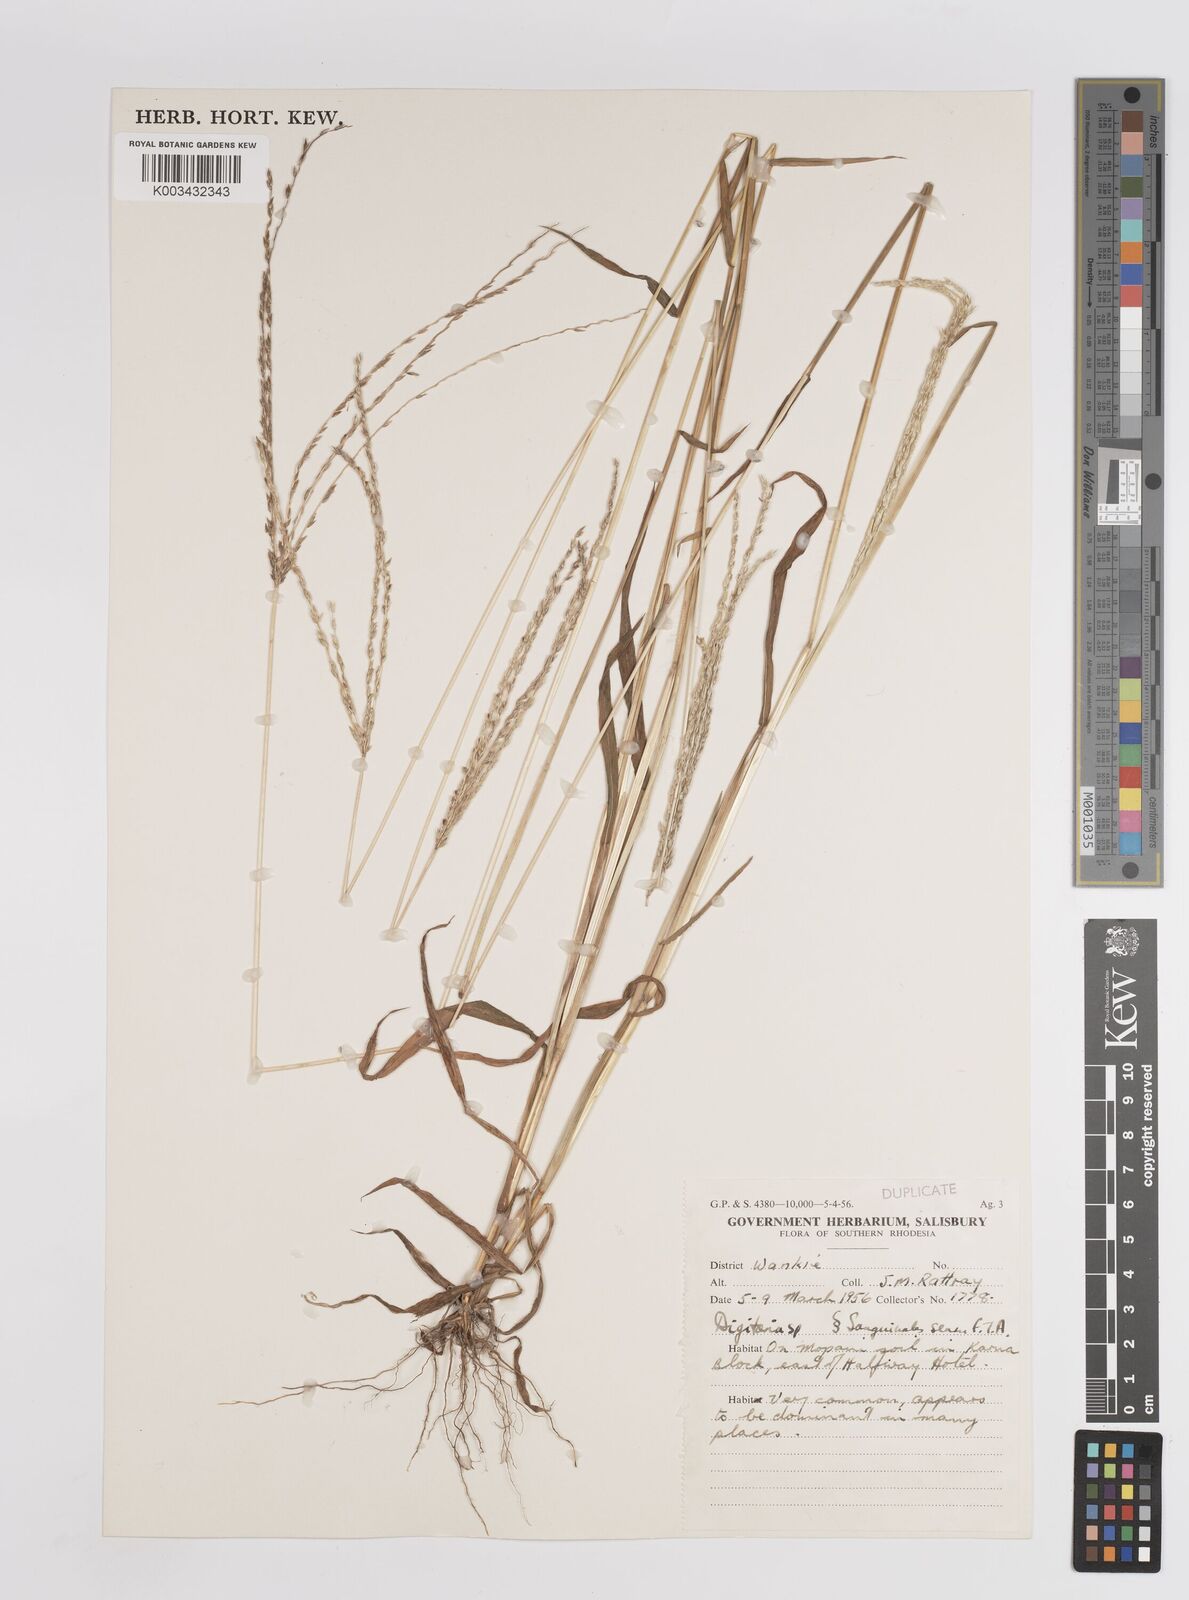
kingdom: Plantae
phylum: Tracheophyta
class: Liliopsida
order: Poales
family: Poaceae
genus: Digitaria
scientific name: Digitaria eriantha
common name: Digitgrass
